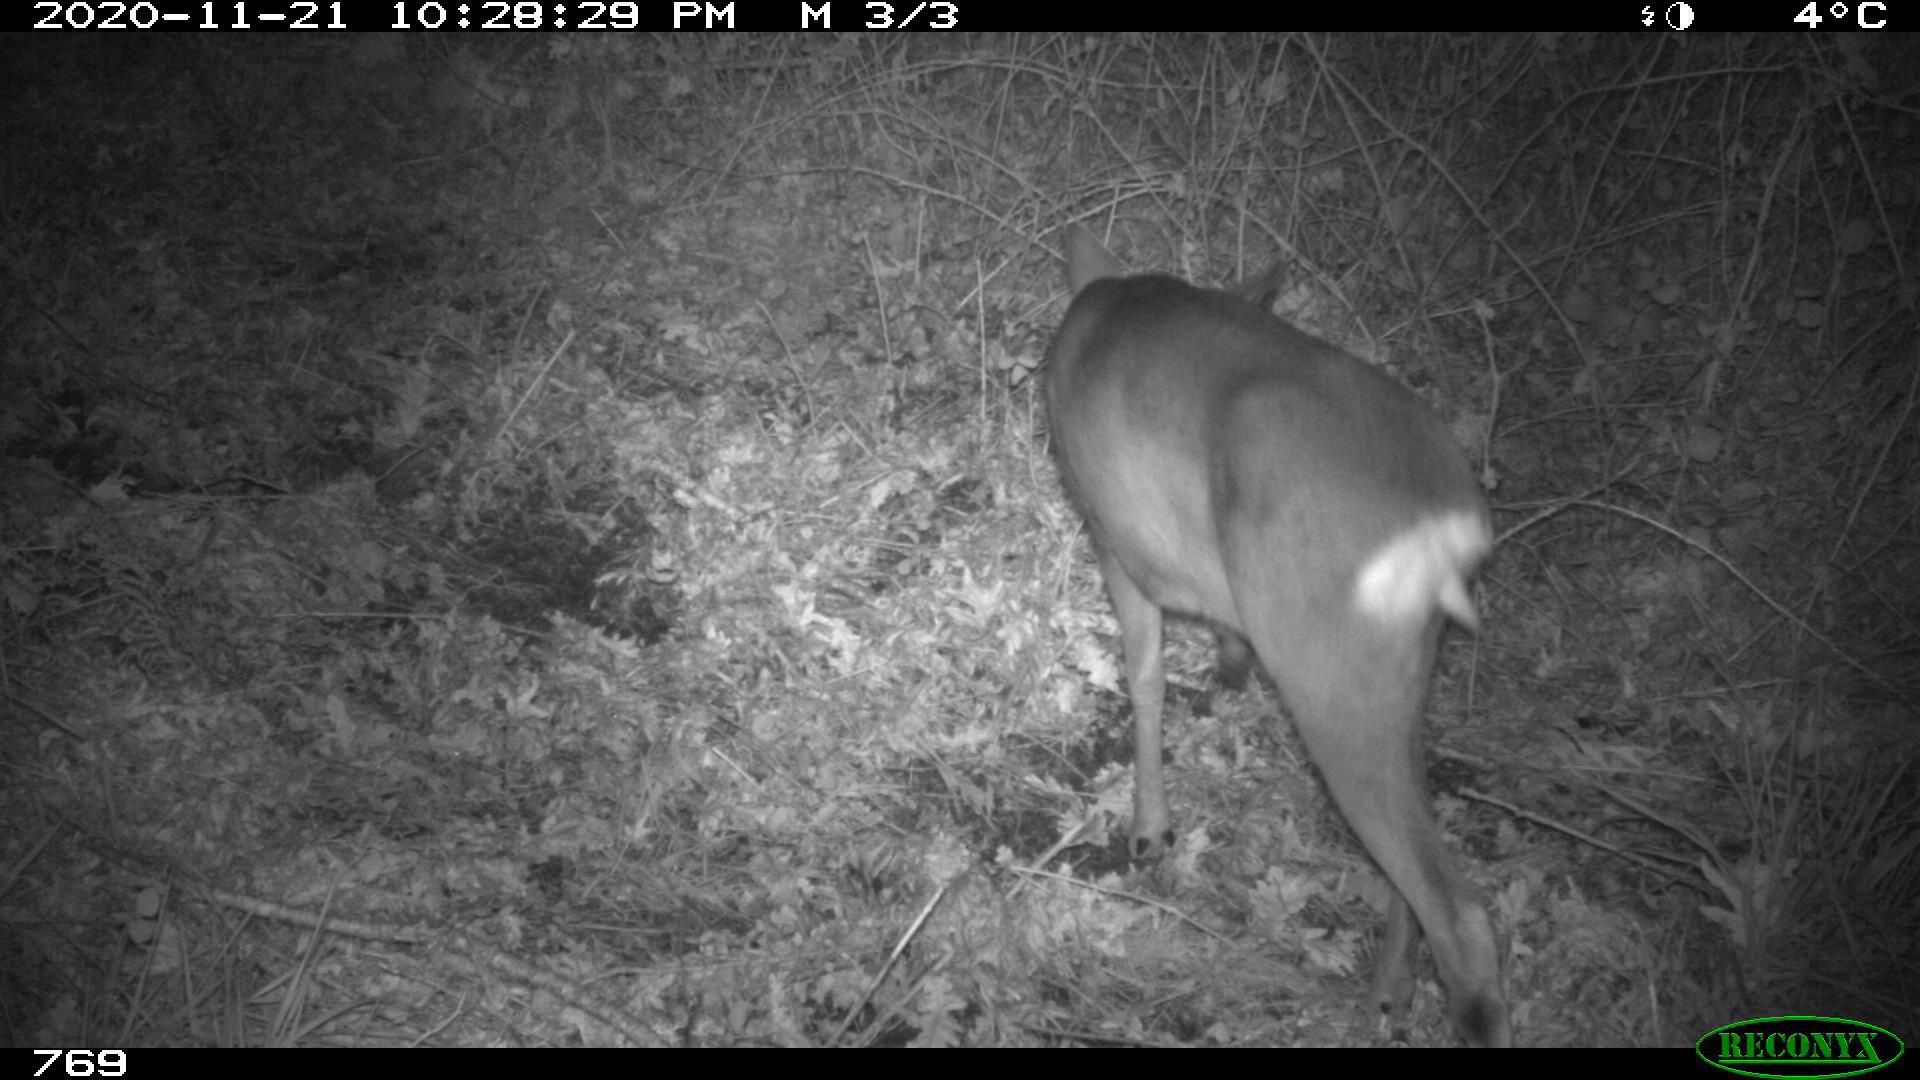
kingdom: Animalia
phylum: Chordata
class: Mammalia
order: Artiodactyla
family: Cervidae
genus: Capreolus
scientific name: Capreolus capreolus
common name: Western roe deer
